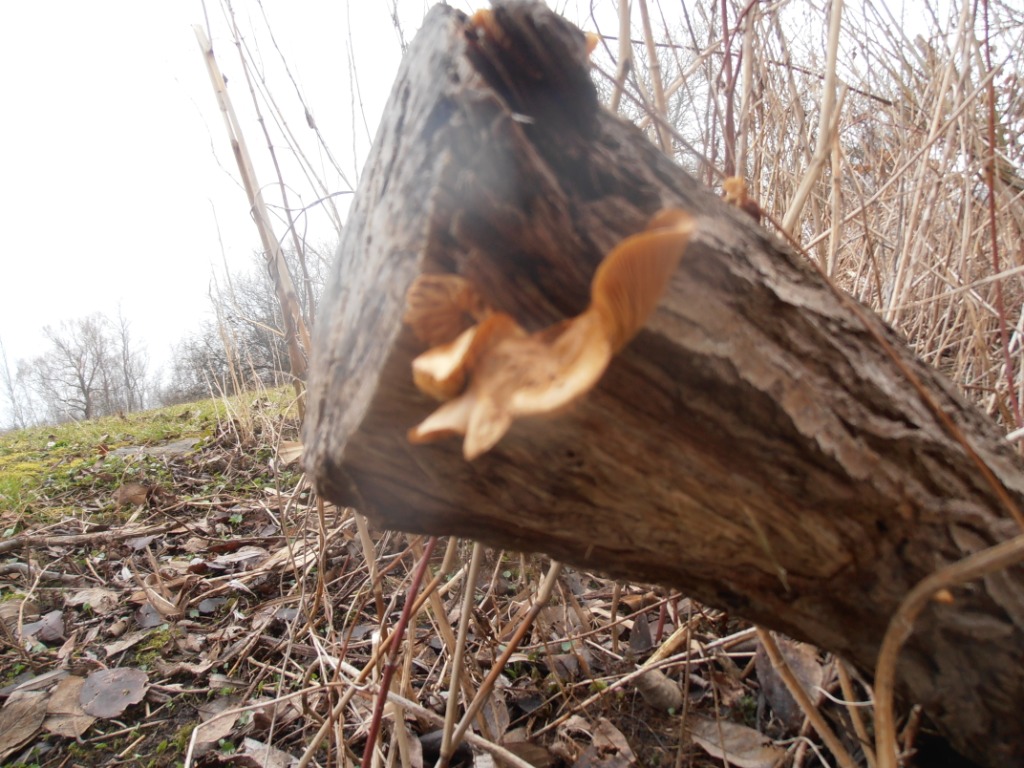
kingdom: Fungi
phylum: Basidiomycota
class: Agaricomycetes
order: Agaricales
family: Physalacriaceae
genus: Flammulina
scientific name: Flammulina velutipes
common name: gul fløjlsfod
